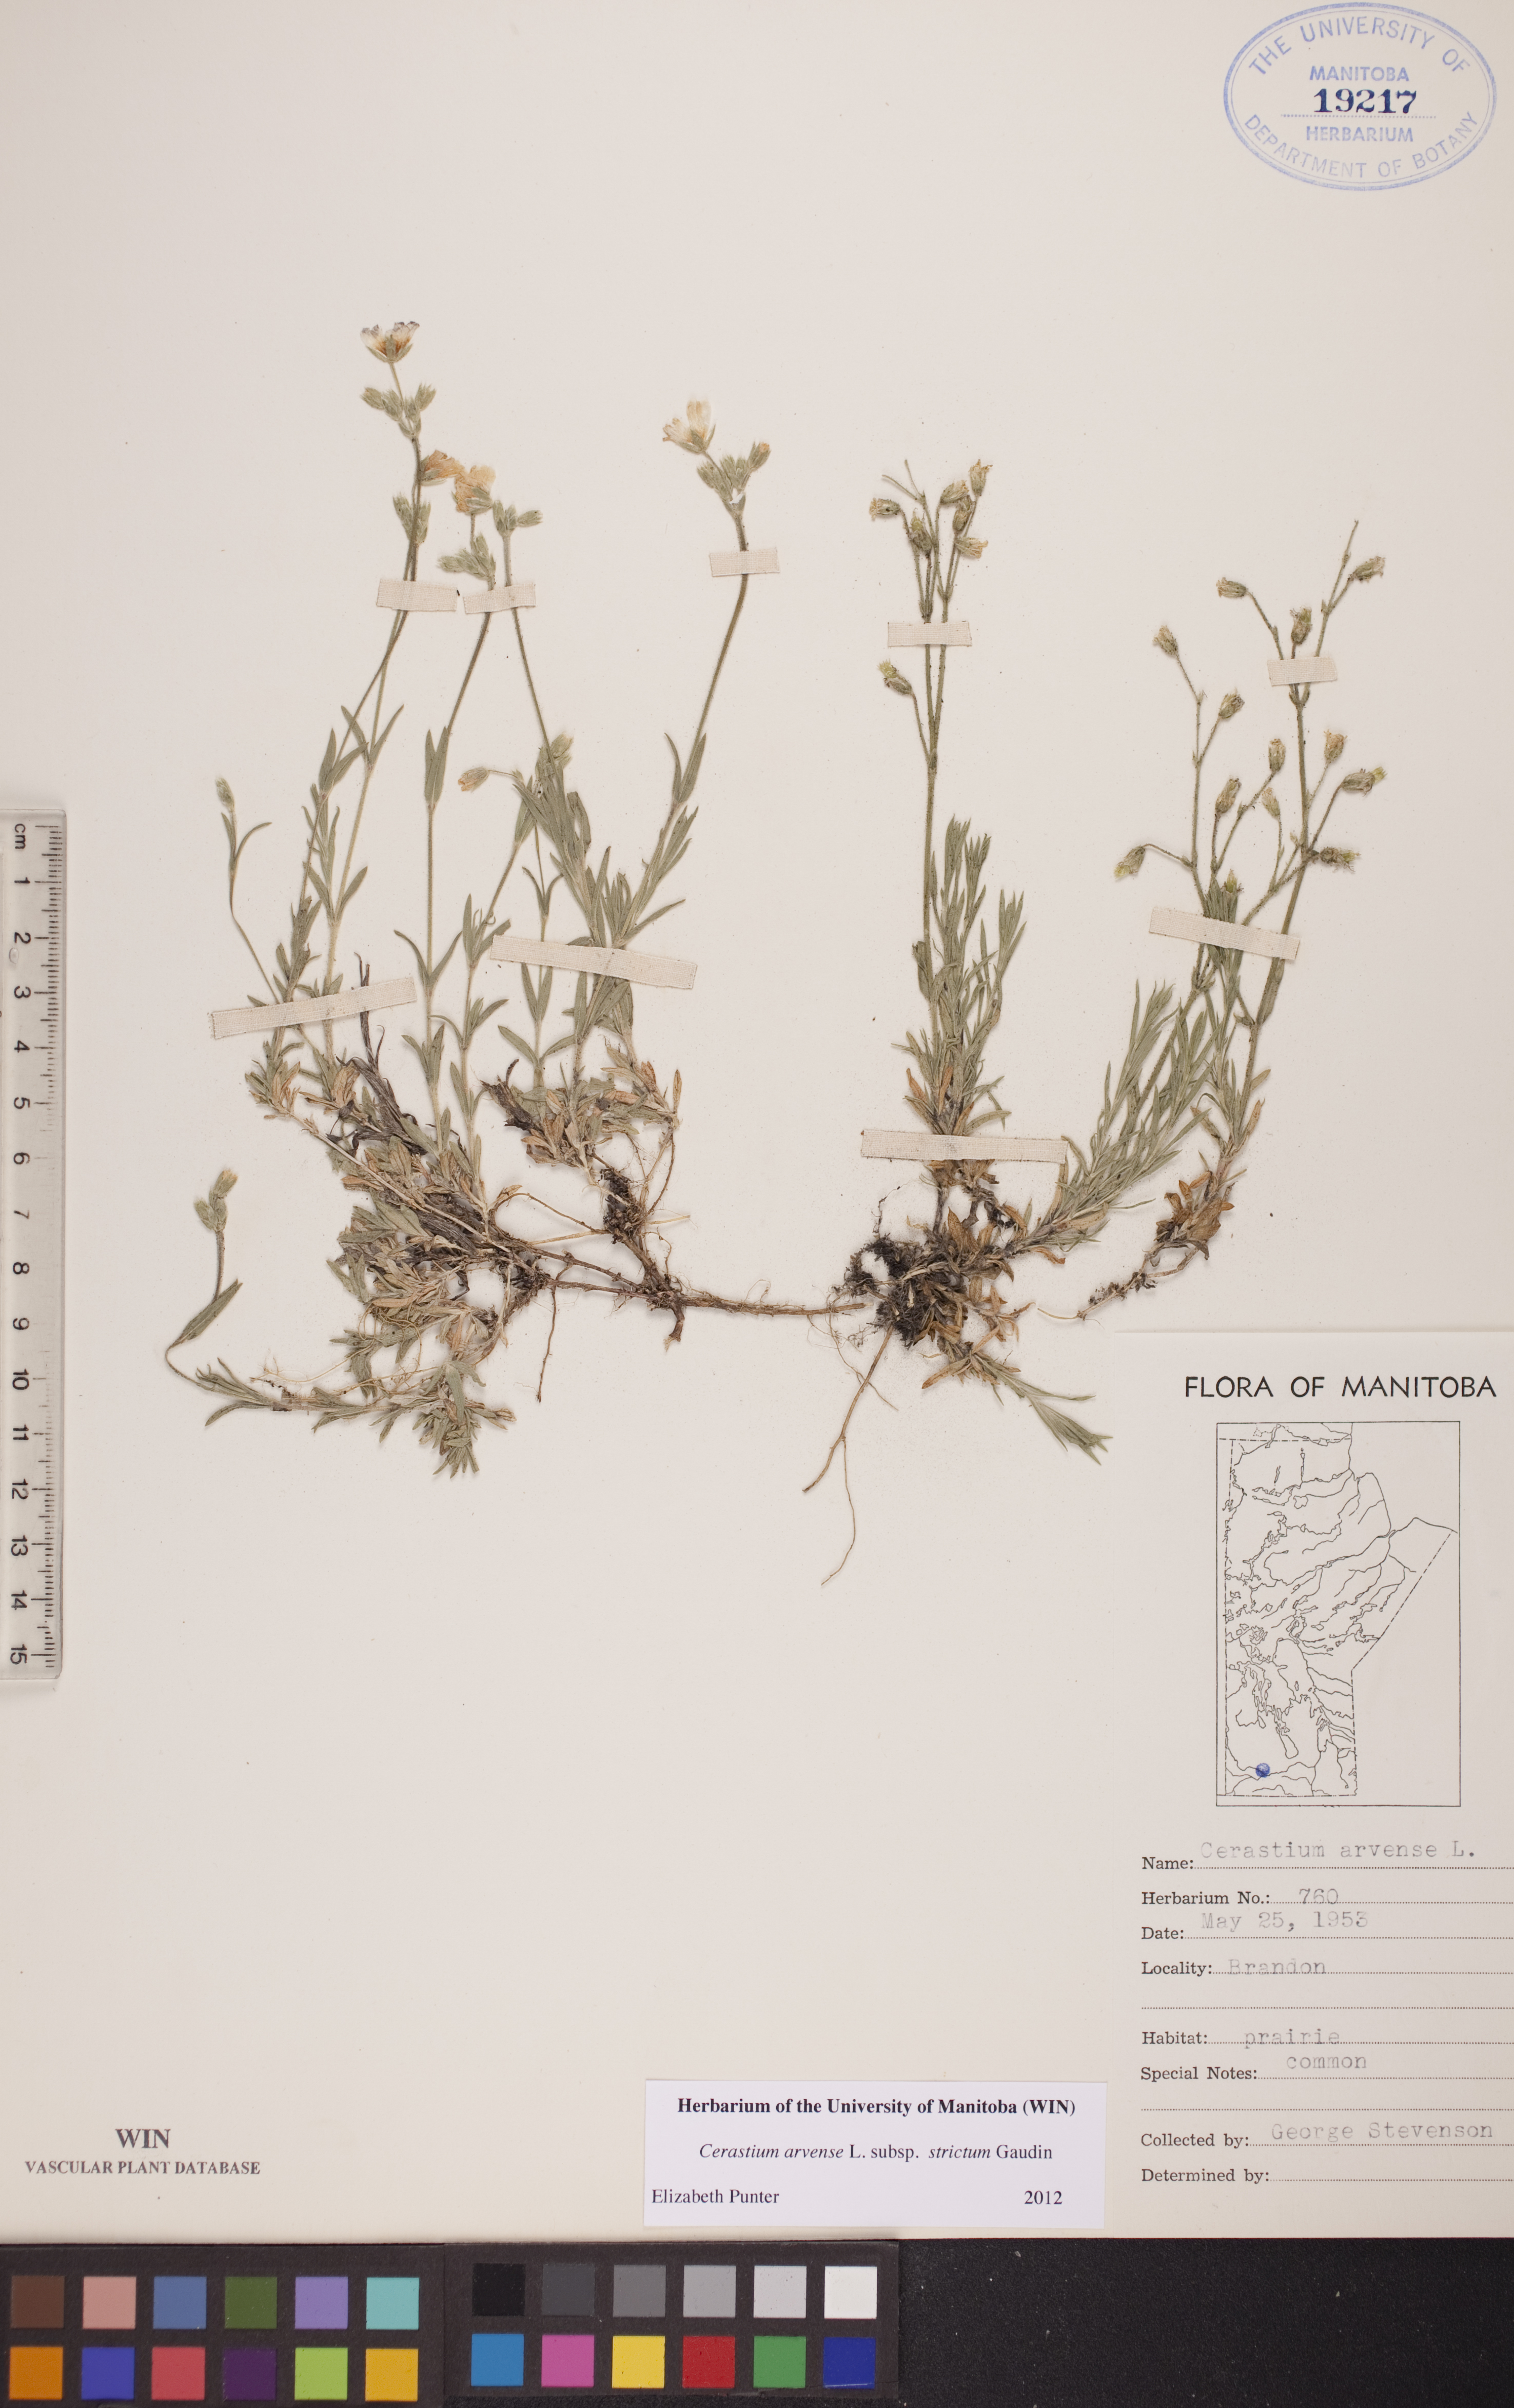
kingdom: Plantae
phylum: Tracheophyta
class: Magnoliopsida
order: Caryophyllales
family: Caryophyllaceae
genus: Cerastium
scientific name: Cerastium elongatum
